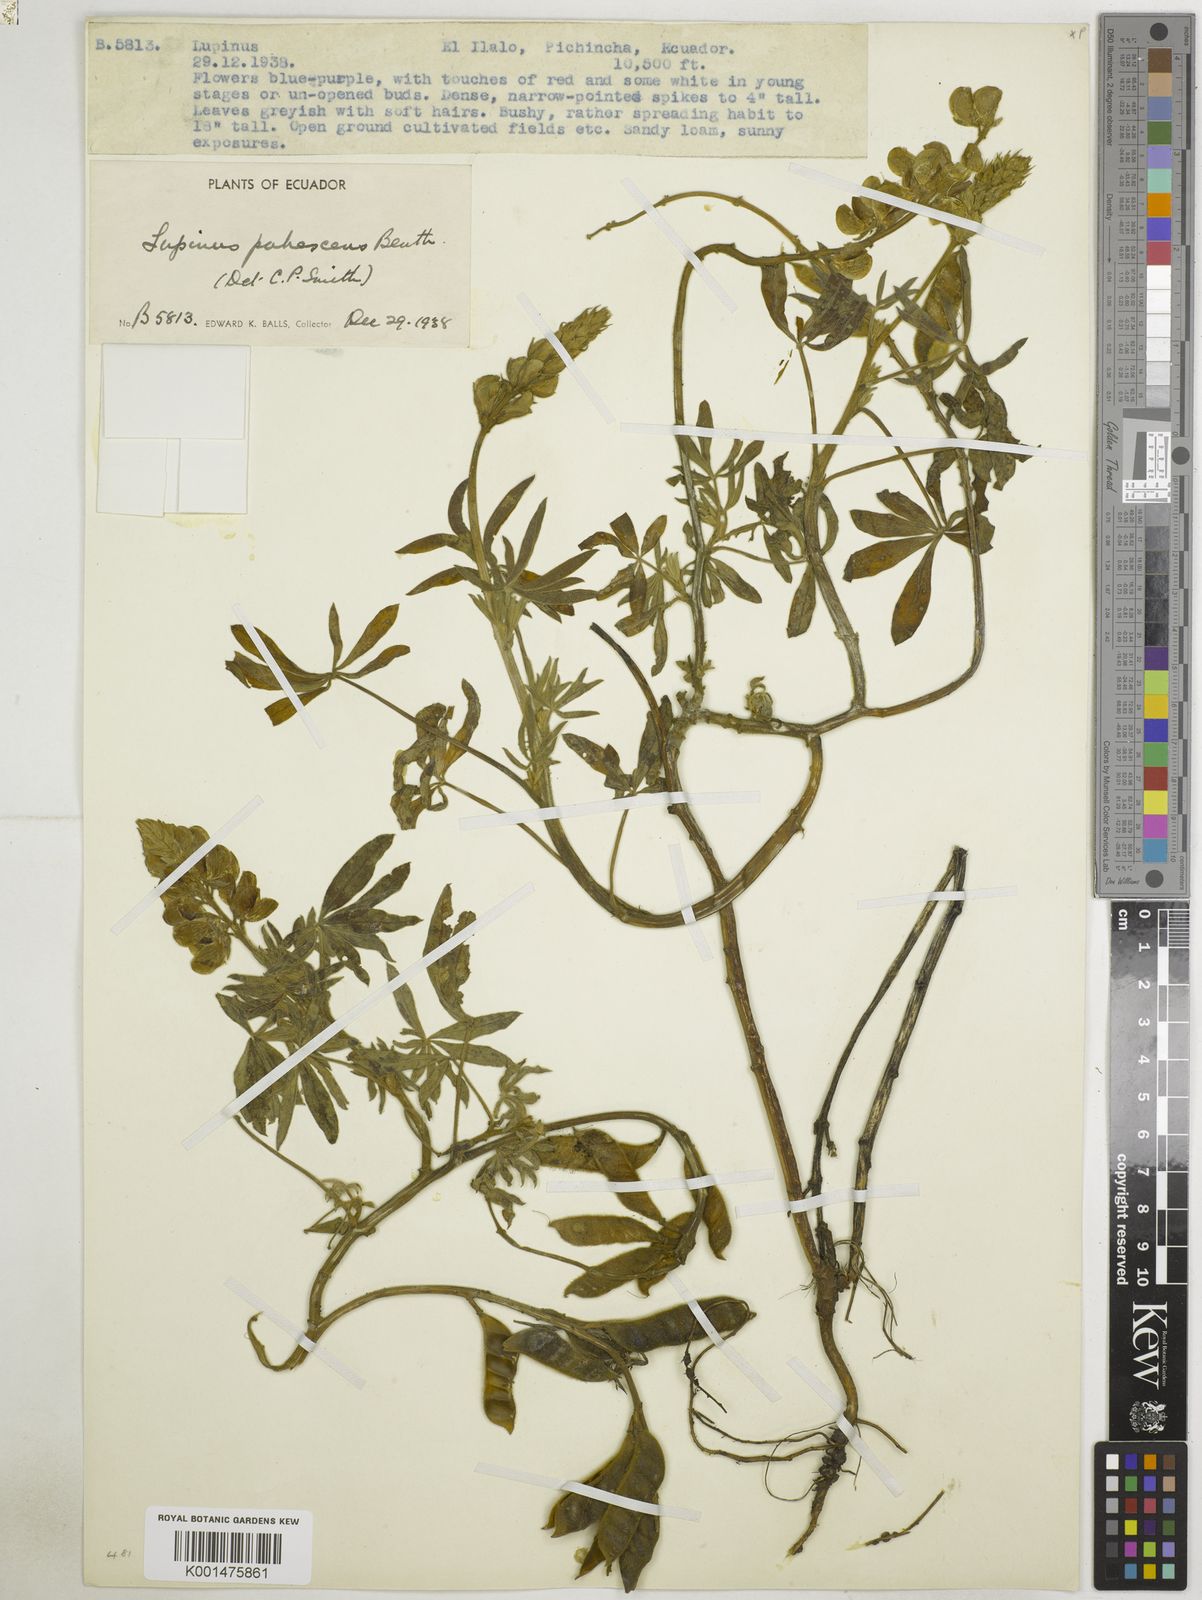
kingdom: Plantae
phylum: Tracheophyta
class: Magnoliopsida
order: Fabales
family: Fabaceae
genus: Lupinus
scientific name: Lupinus pubescens
